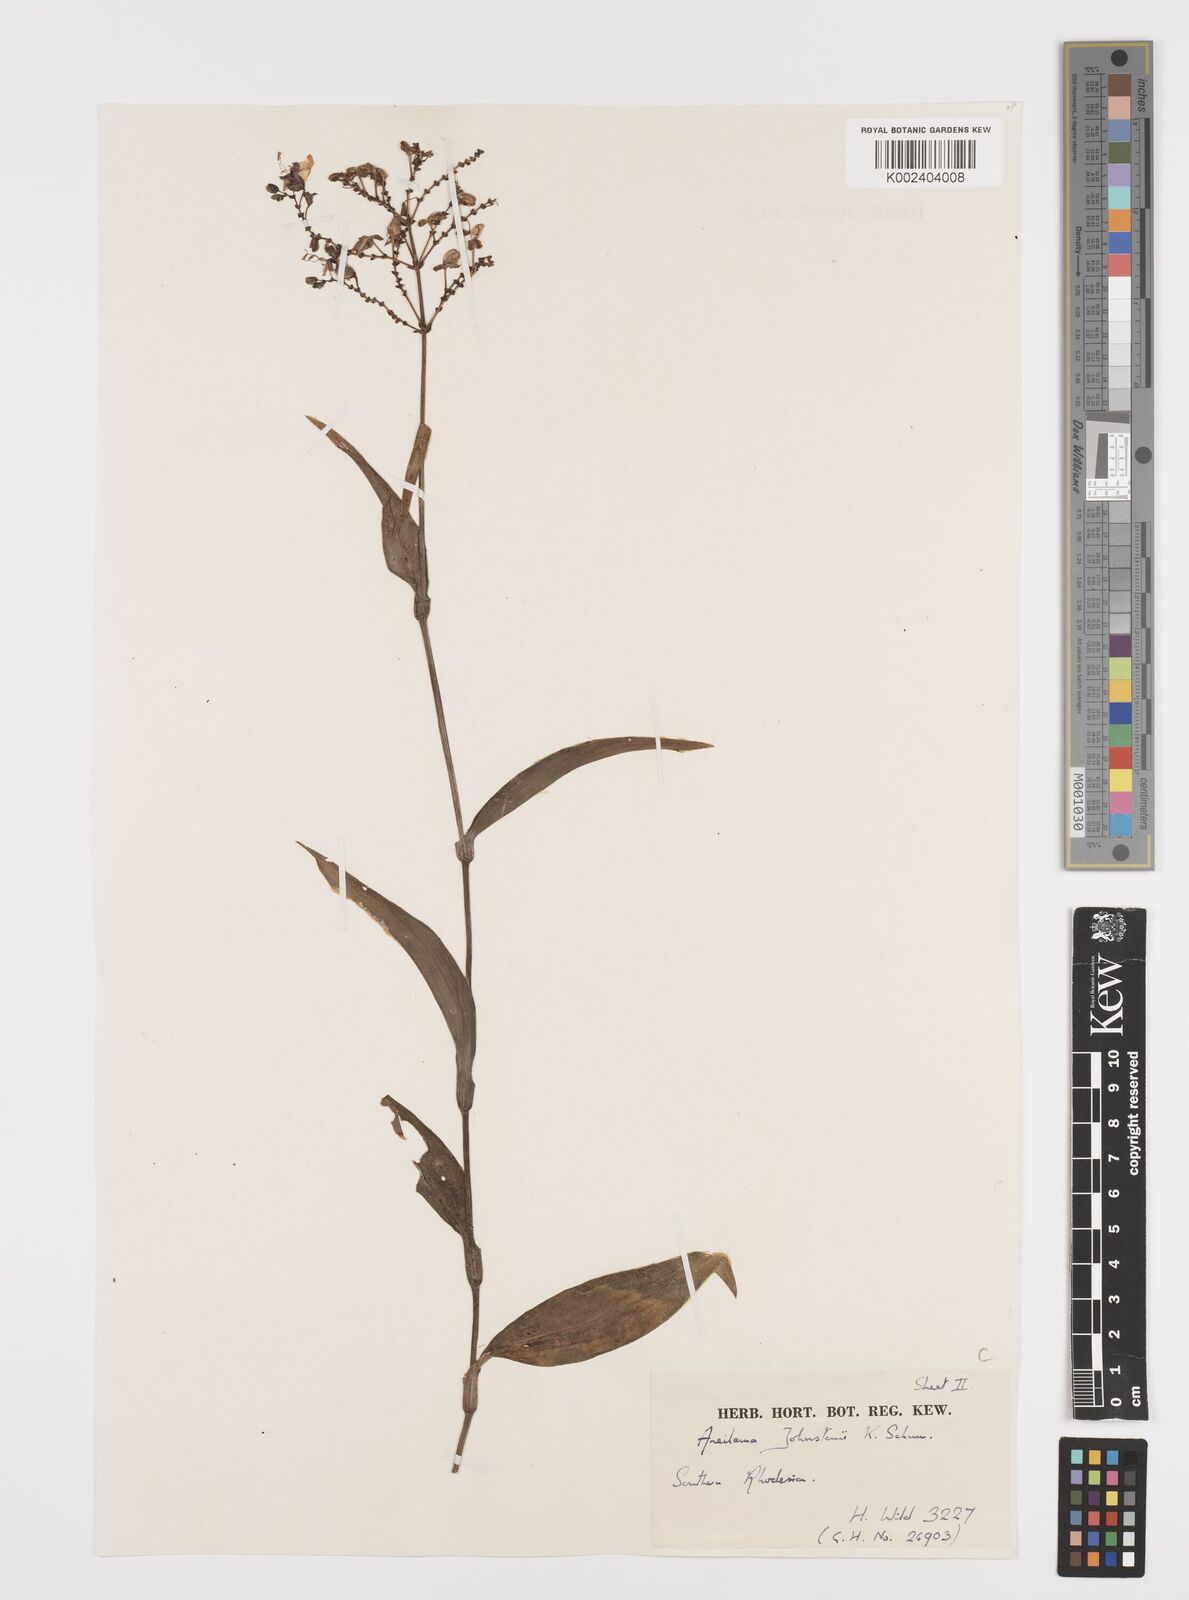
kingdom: Plantae
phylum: Tracheophyta
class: Liliopsida
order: Commelinales
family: Commelinaceae
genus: Aneilema
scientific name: Aneilema johnstonii
